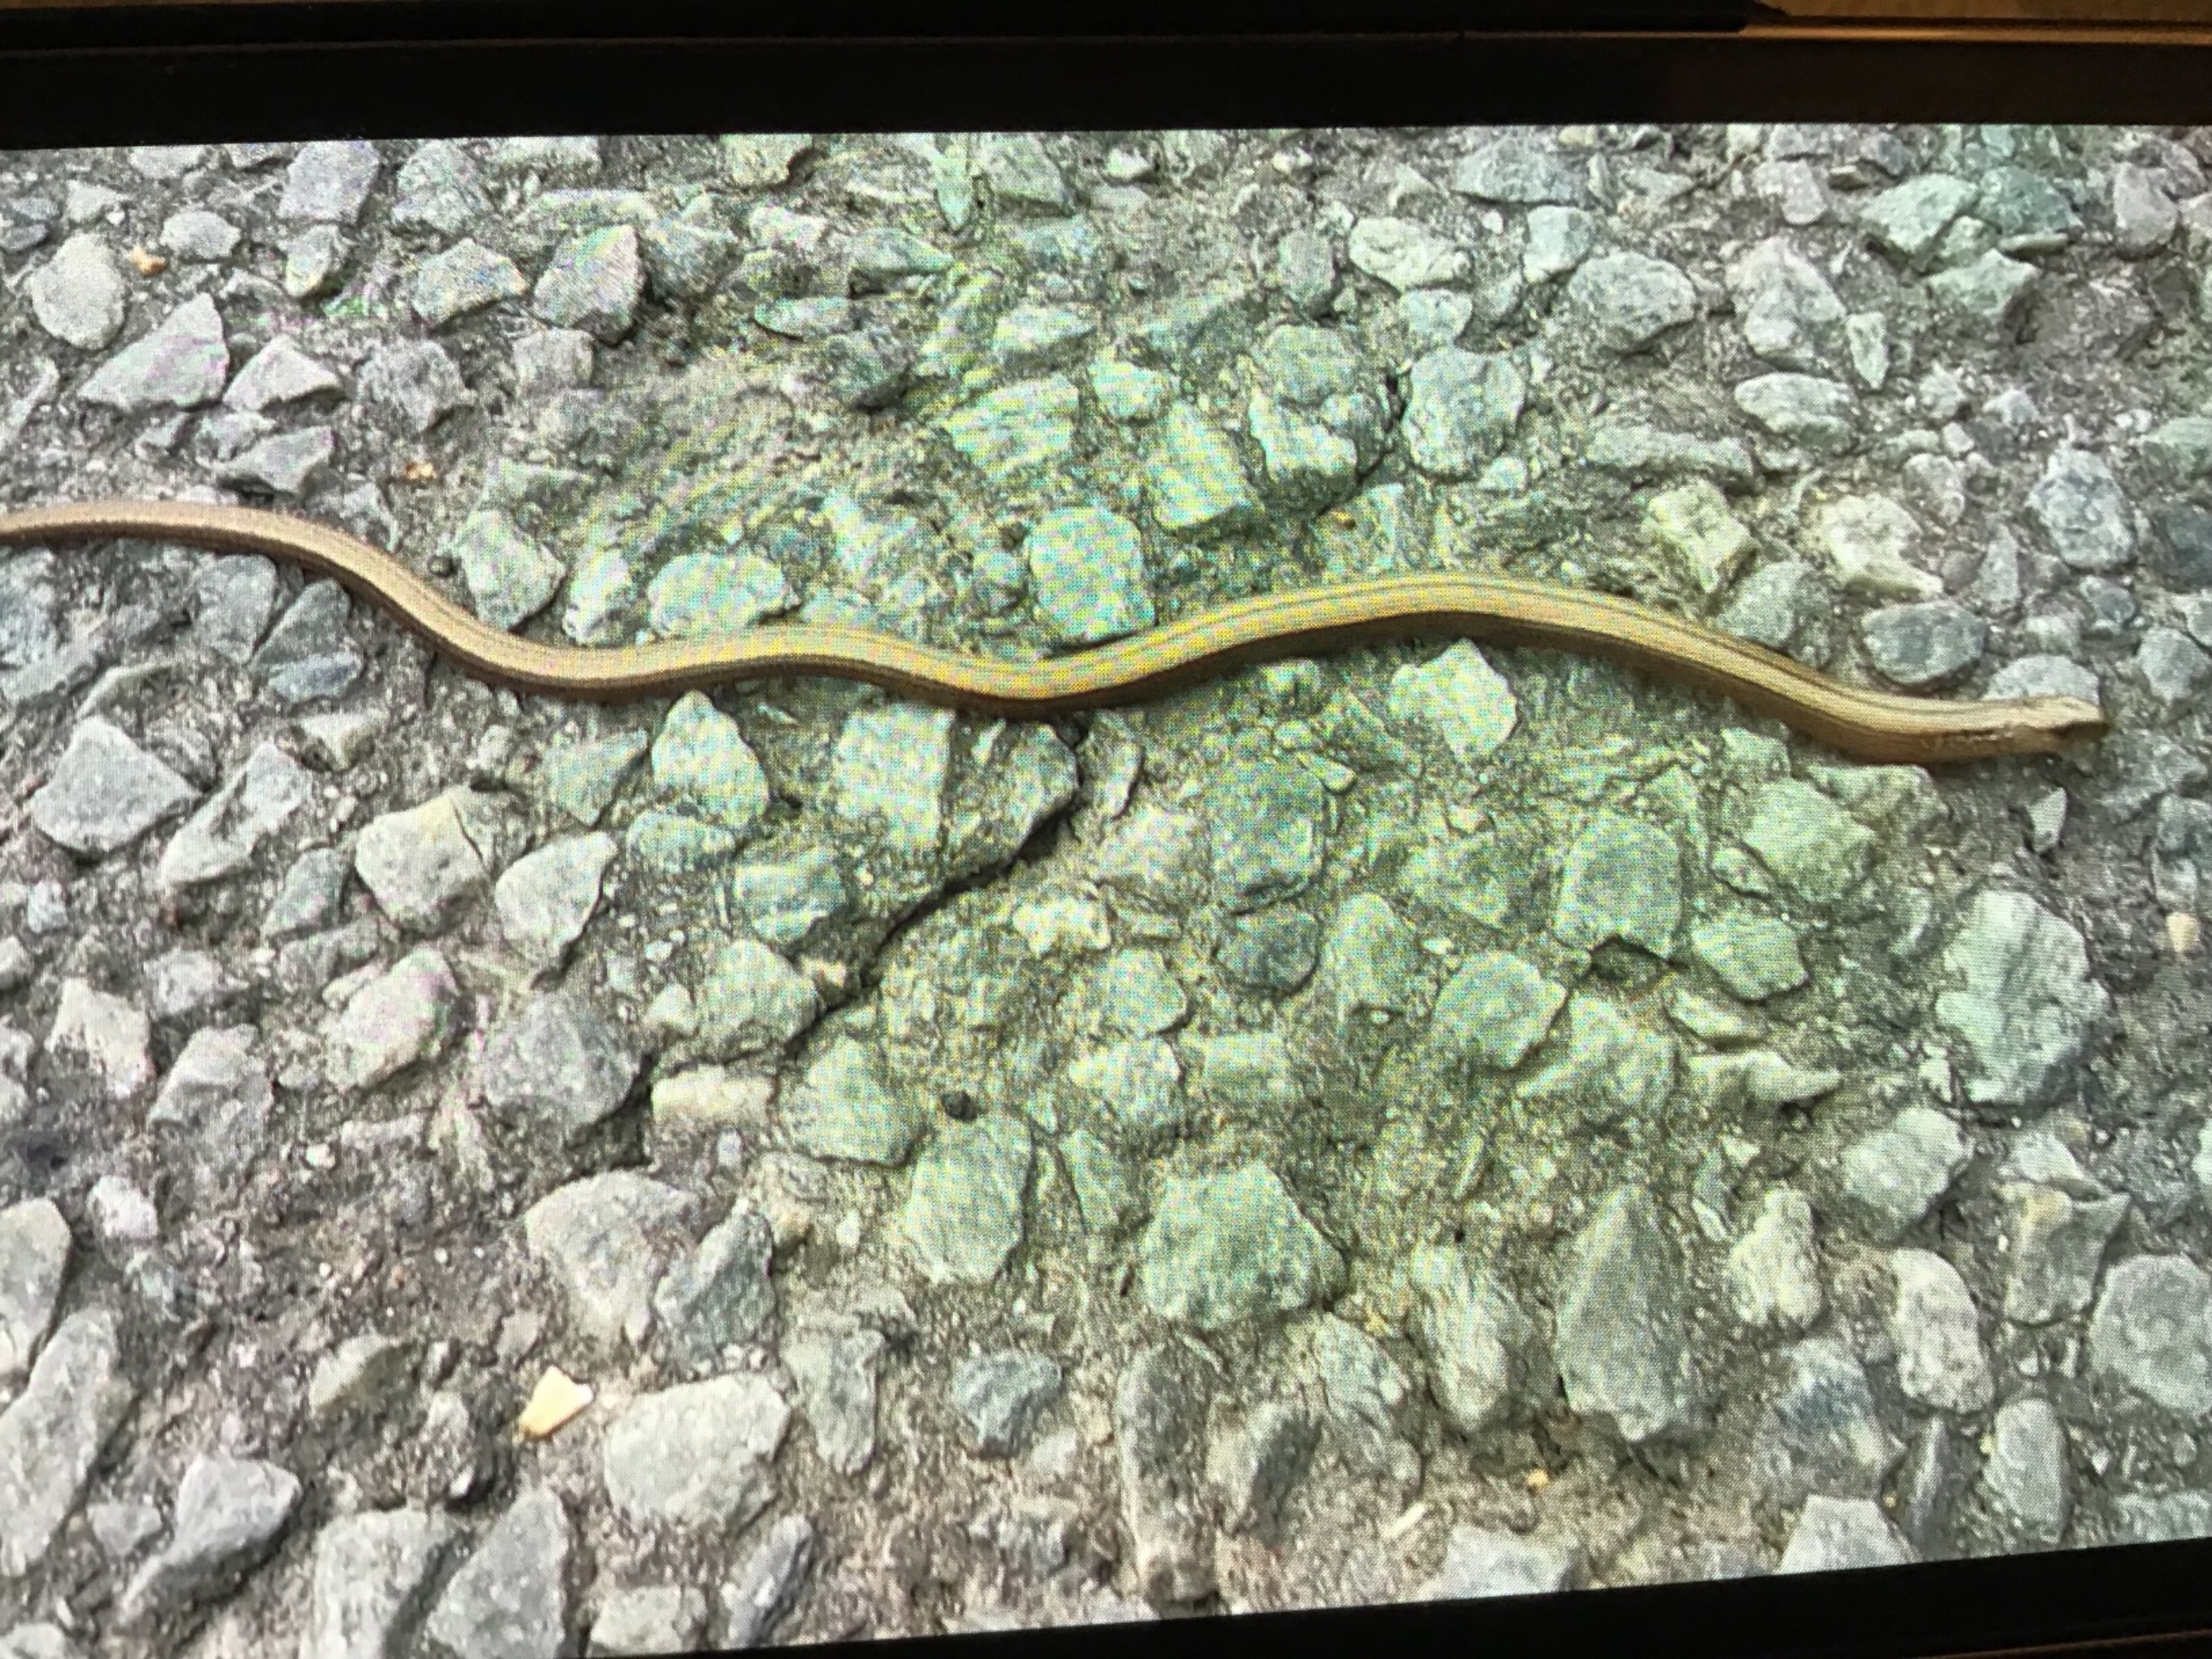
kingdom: Animalia
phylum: Chordata
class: Squamata
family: Anguidae
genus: Anguis
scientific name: Anguis fragilis
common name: Stålorm
